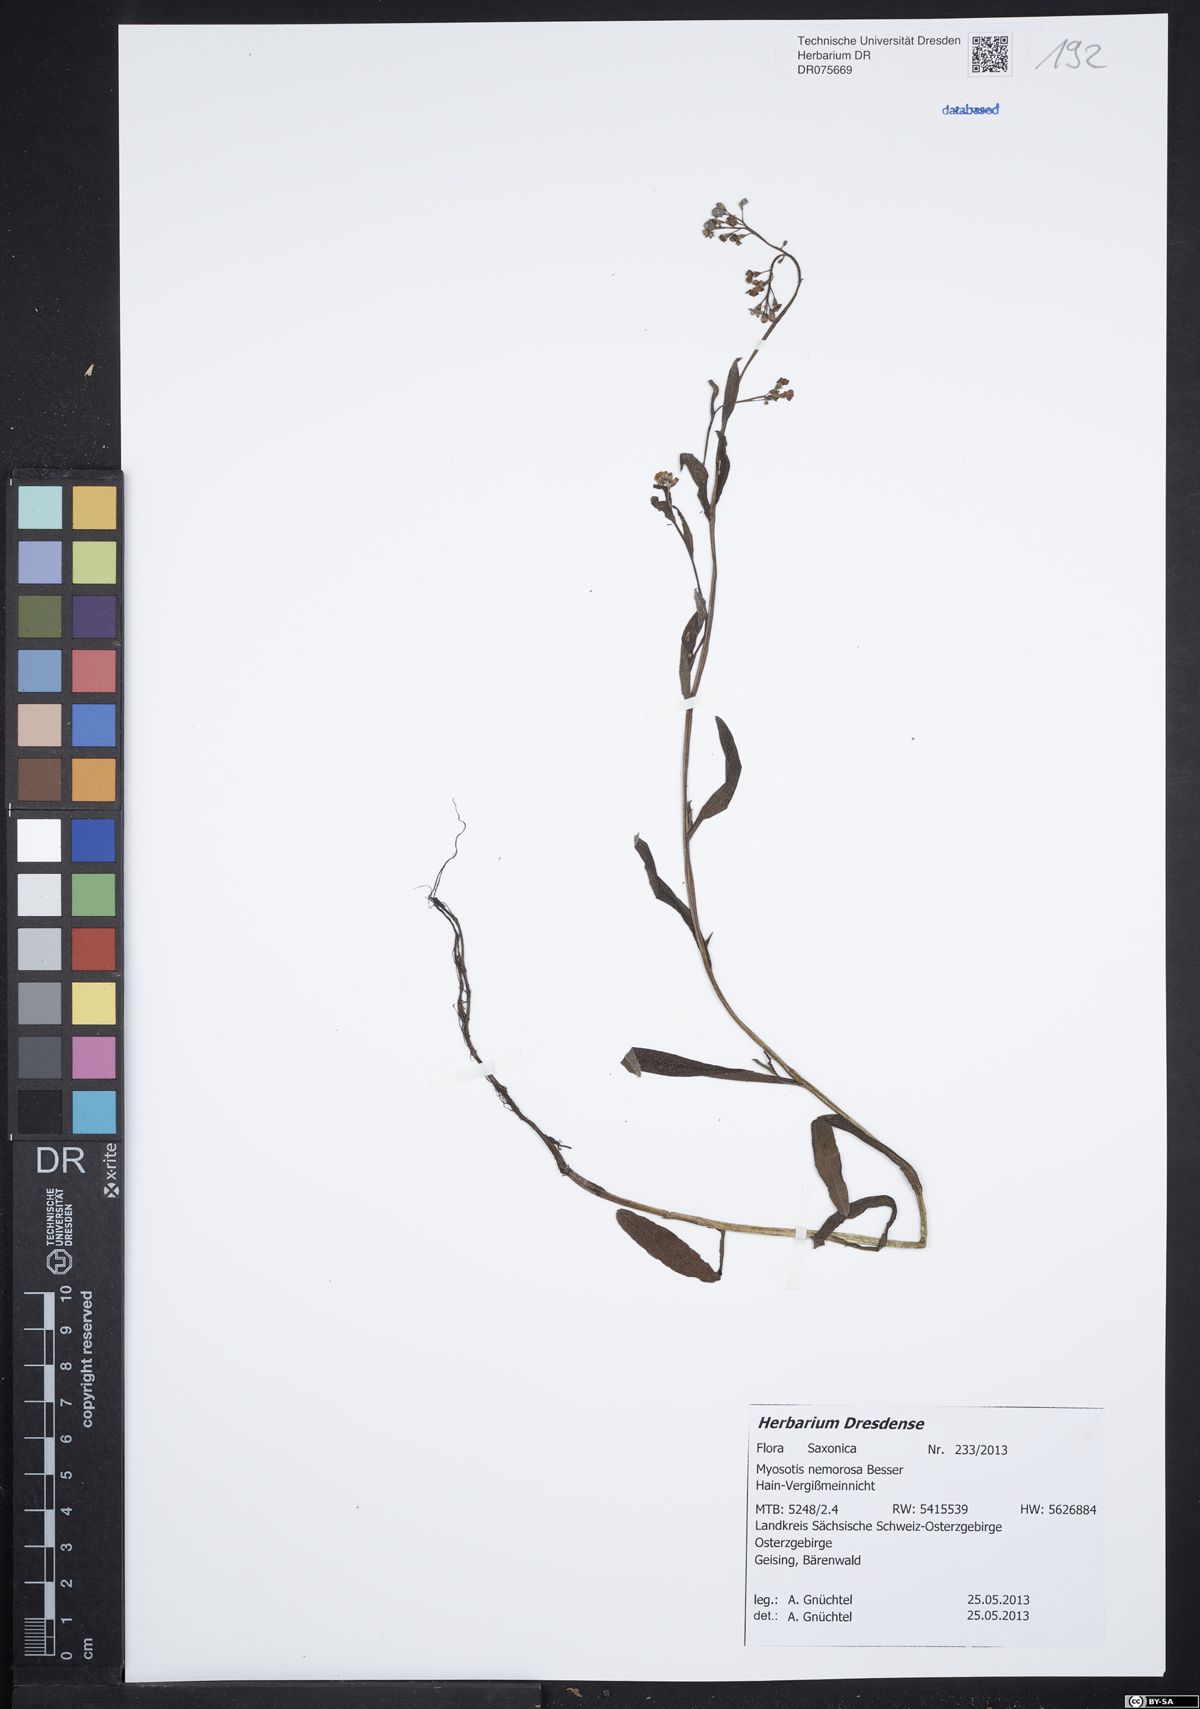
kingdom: Plantae
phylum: Tracheophyta
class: Magnoliopsida
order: Boraginales
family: Boraginaceae
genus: Myosotis
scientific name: Myosotis nemorosa
